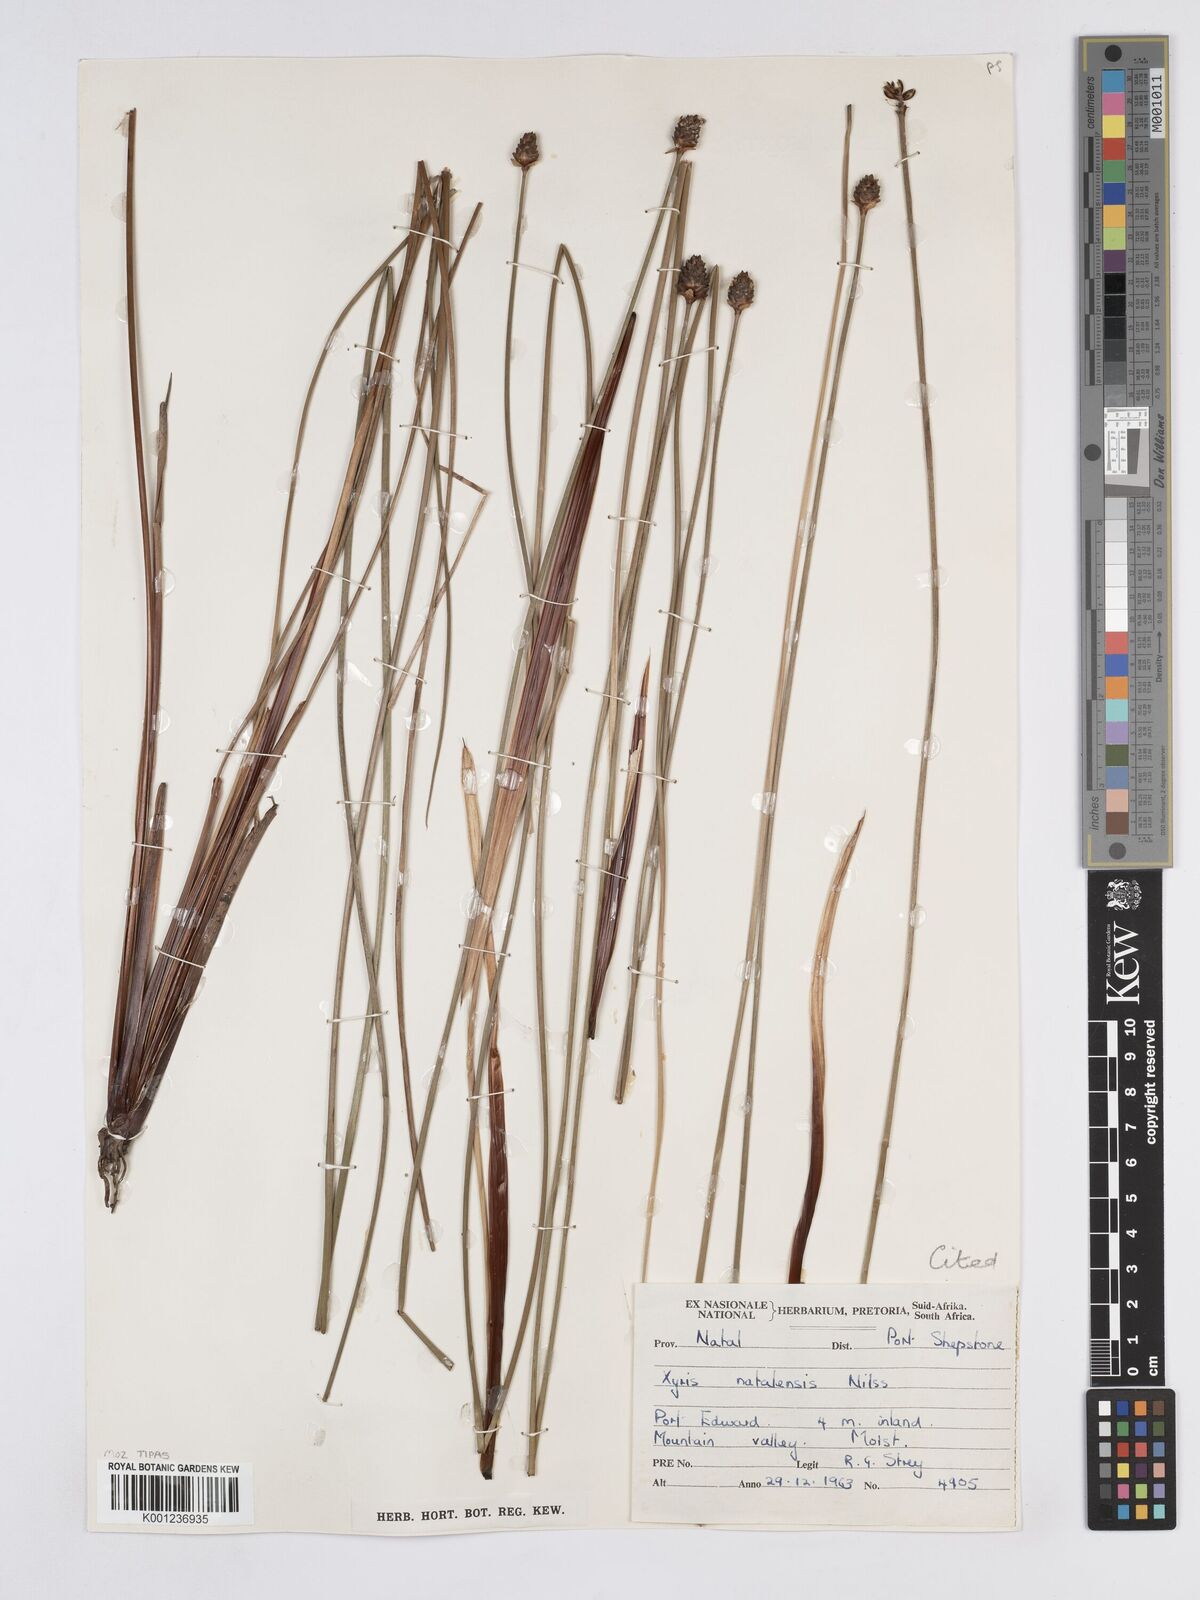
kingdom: Plantae
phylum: Tracheophyta
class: Liliopsida
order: Poales
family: Xyridaceae
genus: Xyris
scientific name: Xyris natalensis
